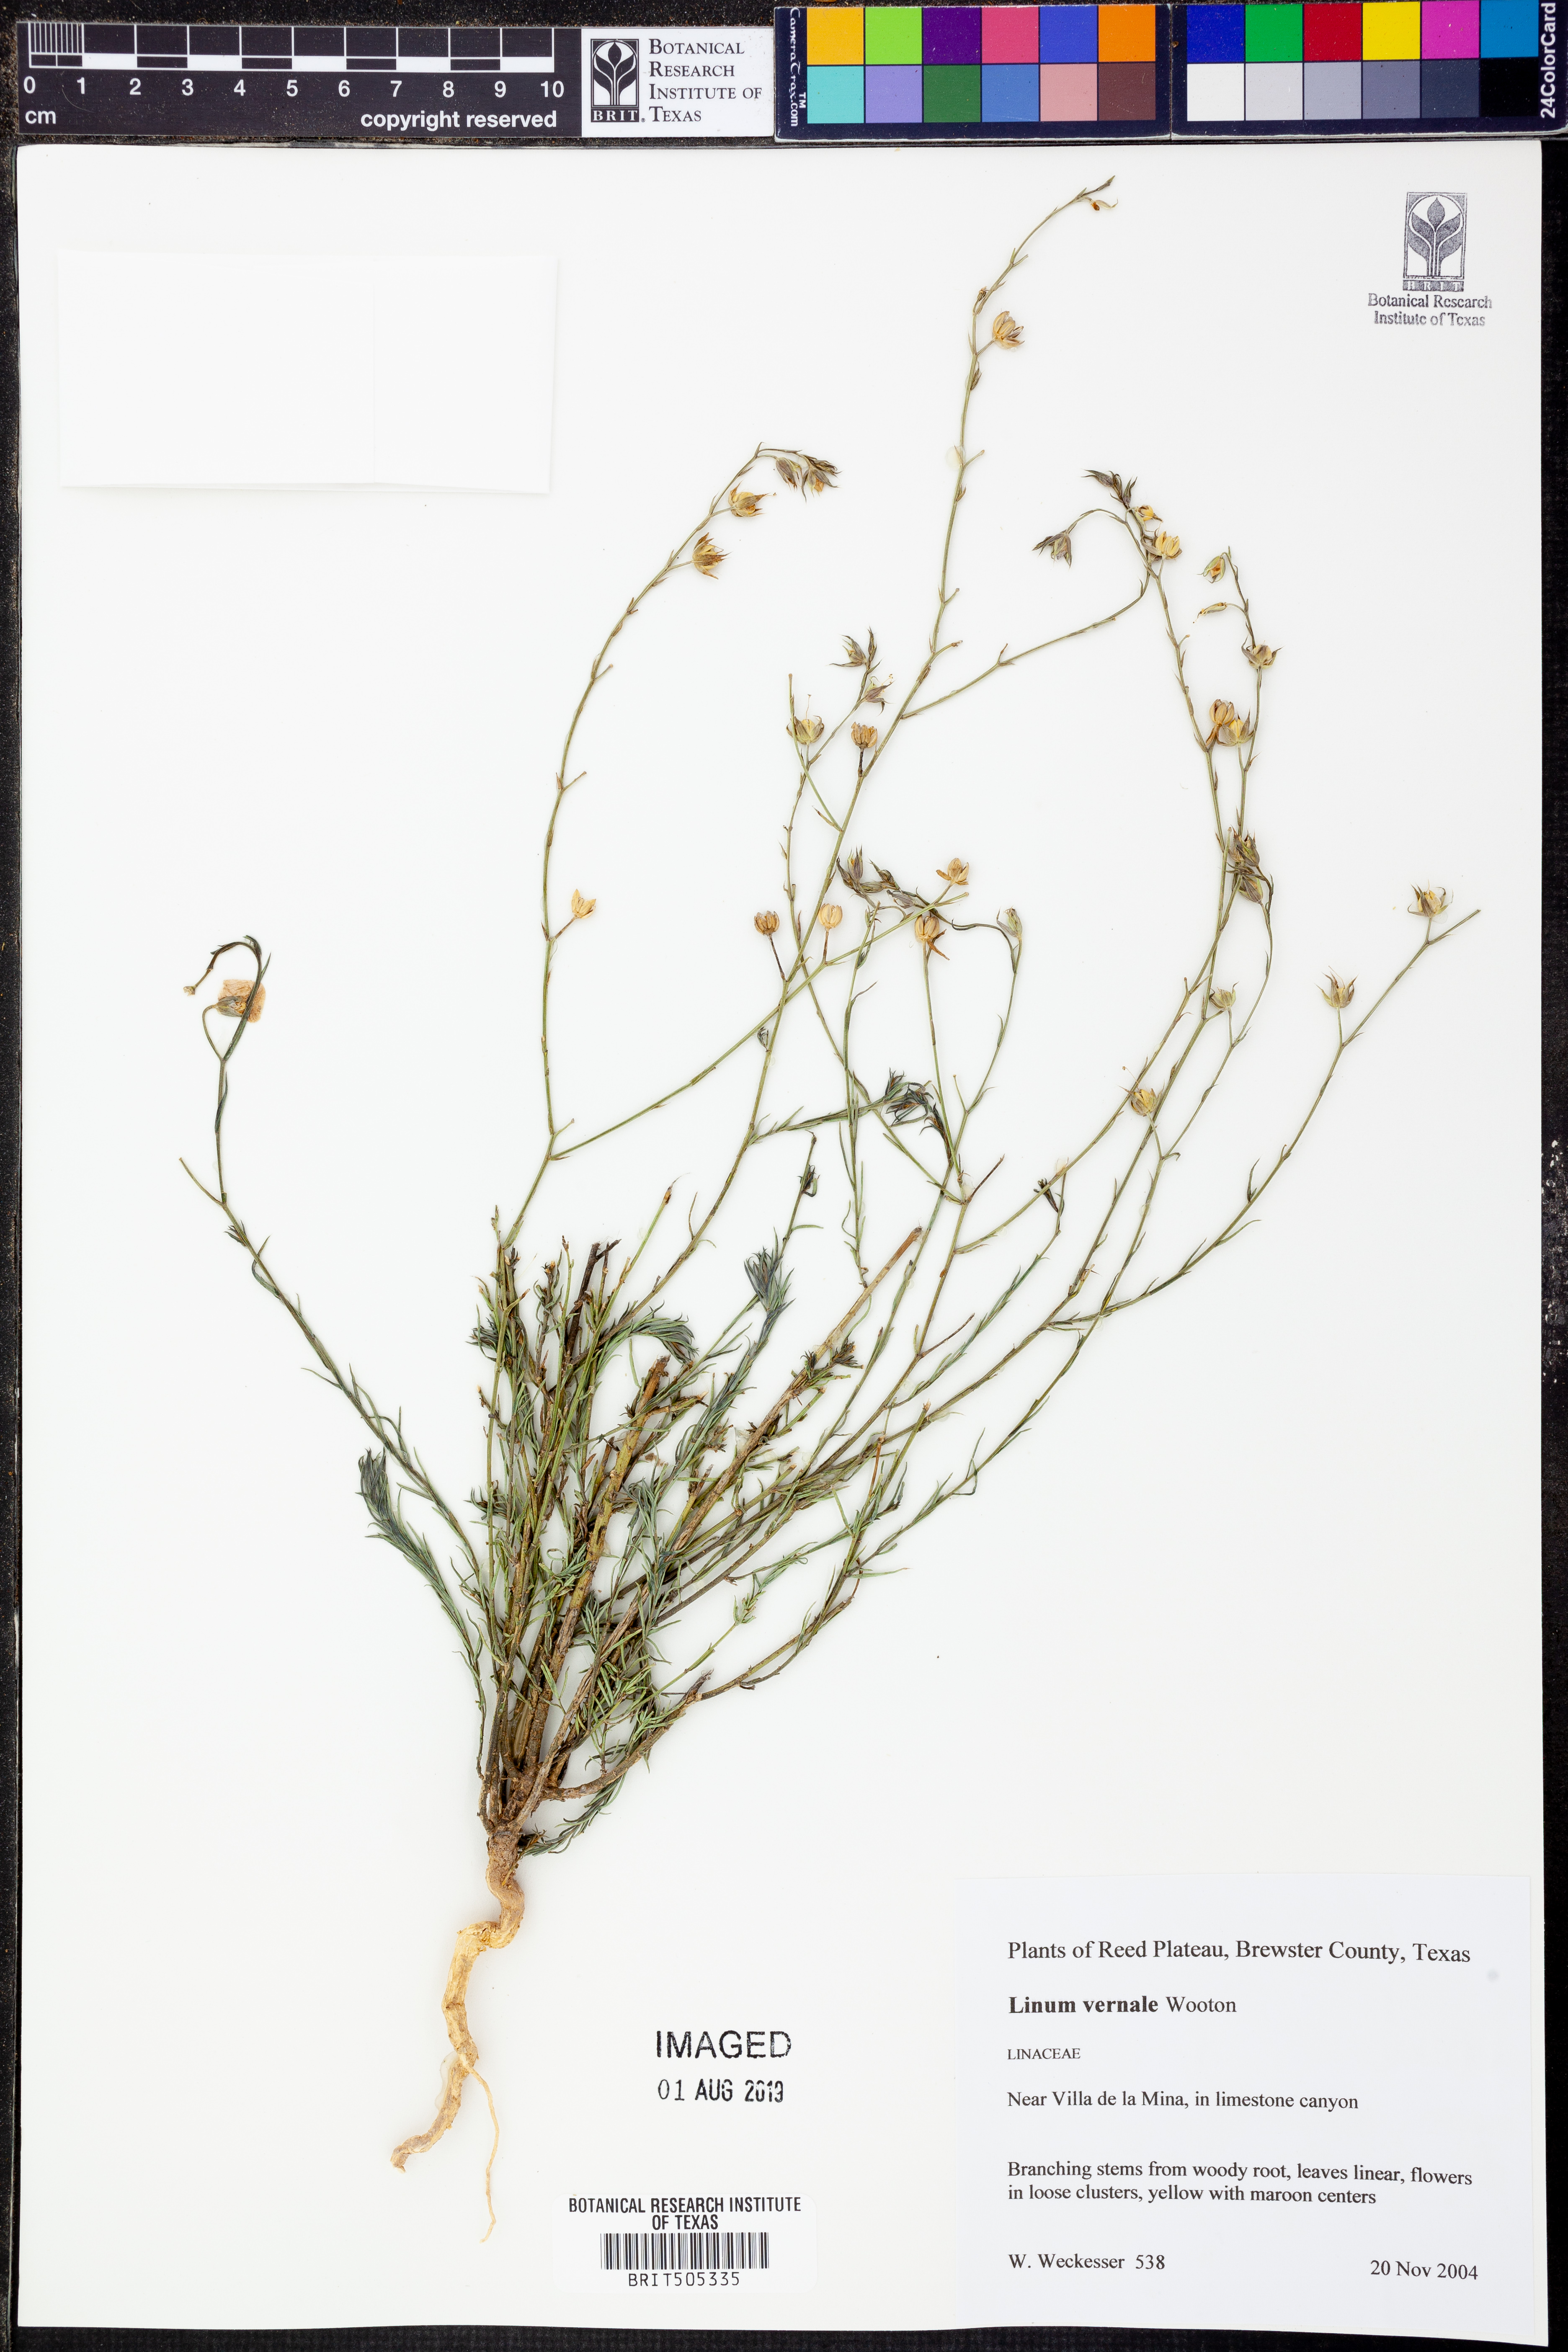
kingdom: Plantae
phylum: Tracheophyta
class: Magnoliopsida
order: Malpighiales
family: Linaceae
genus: Linum
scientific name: Linum vernale
